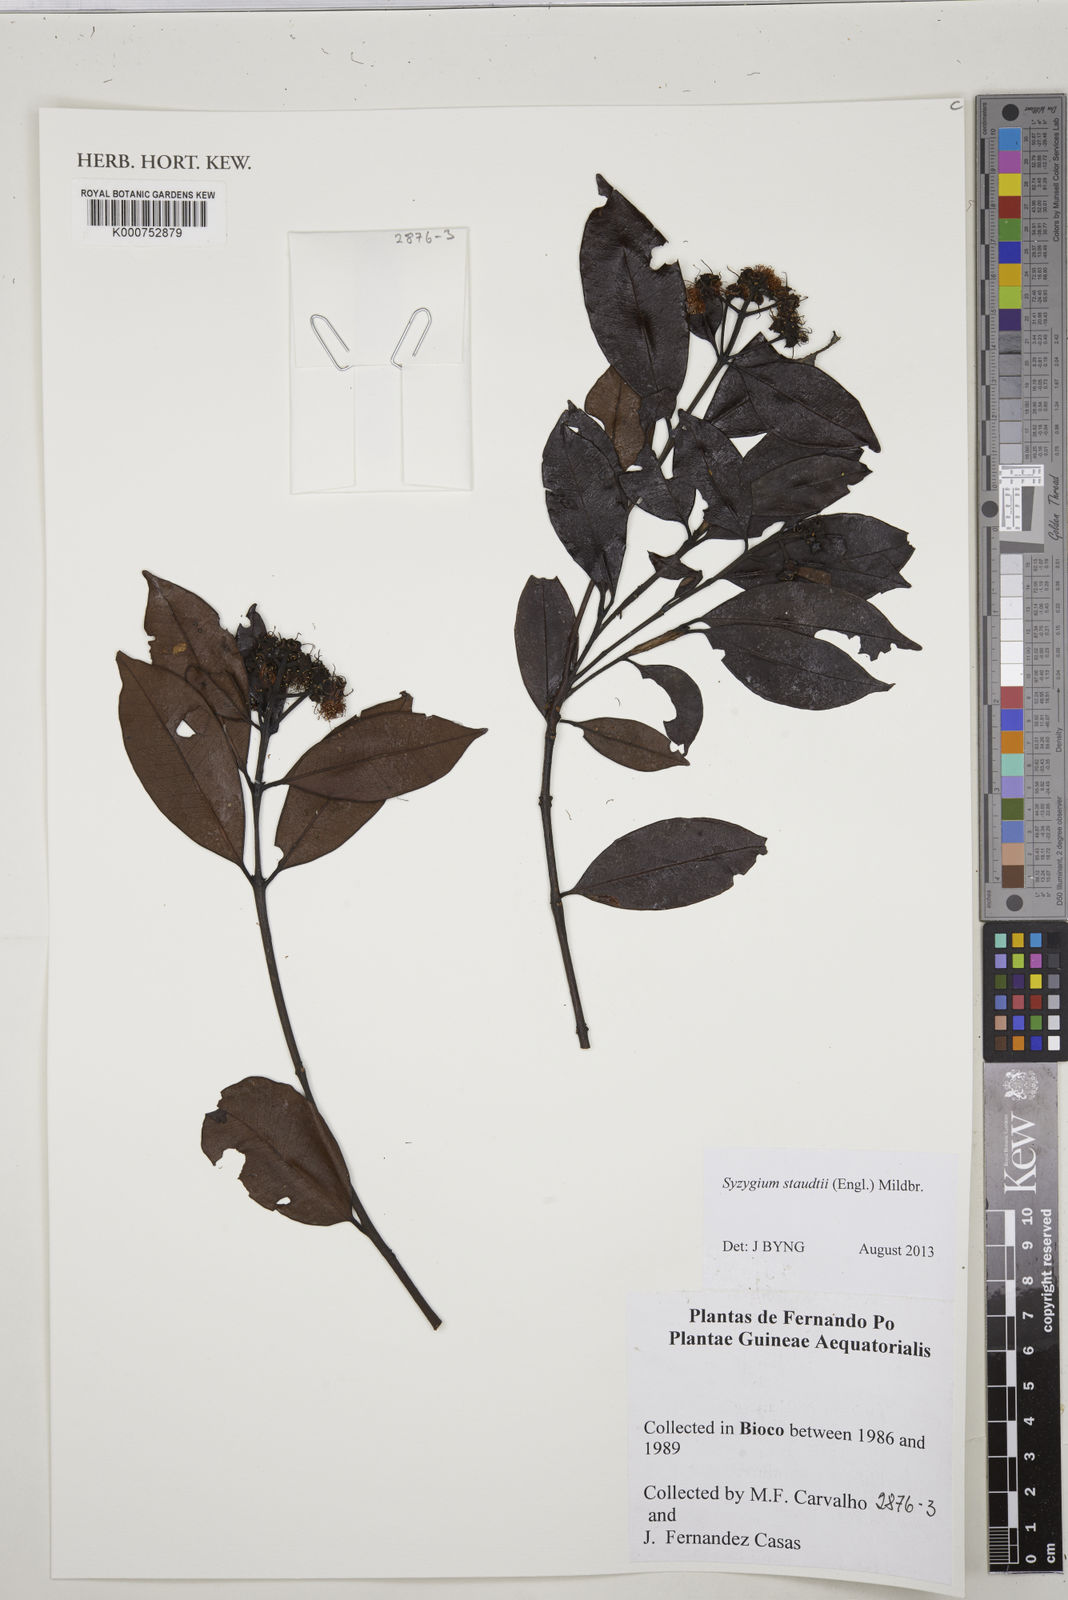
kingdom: Plantae
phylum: Tracheophyta
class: Magnoliopsida
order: Myrtales
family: Myrtaceae
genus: Syzygium
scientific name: Syzygium staudtii
